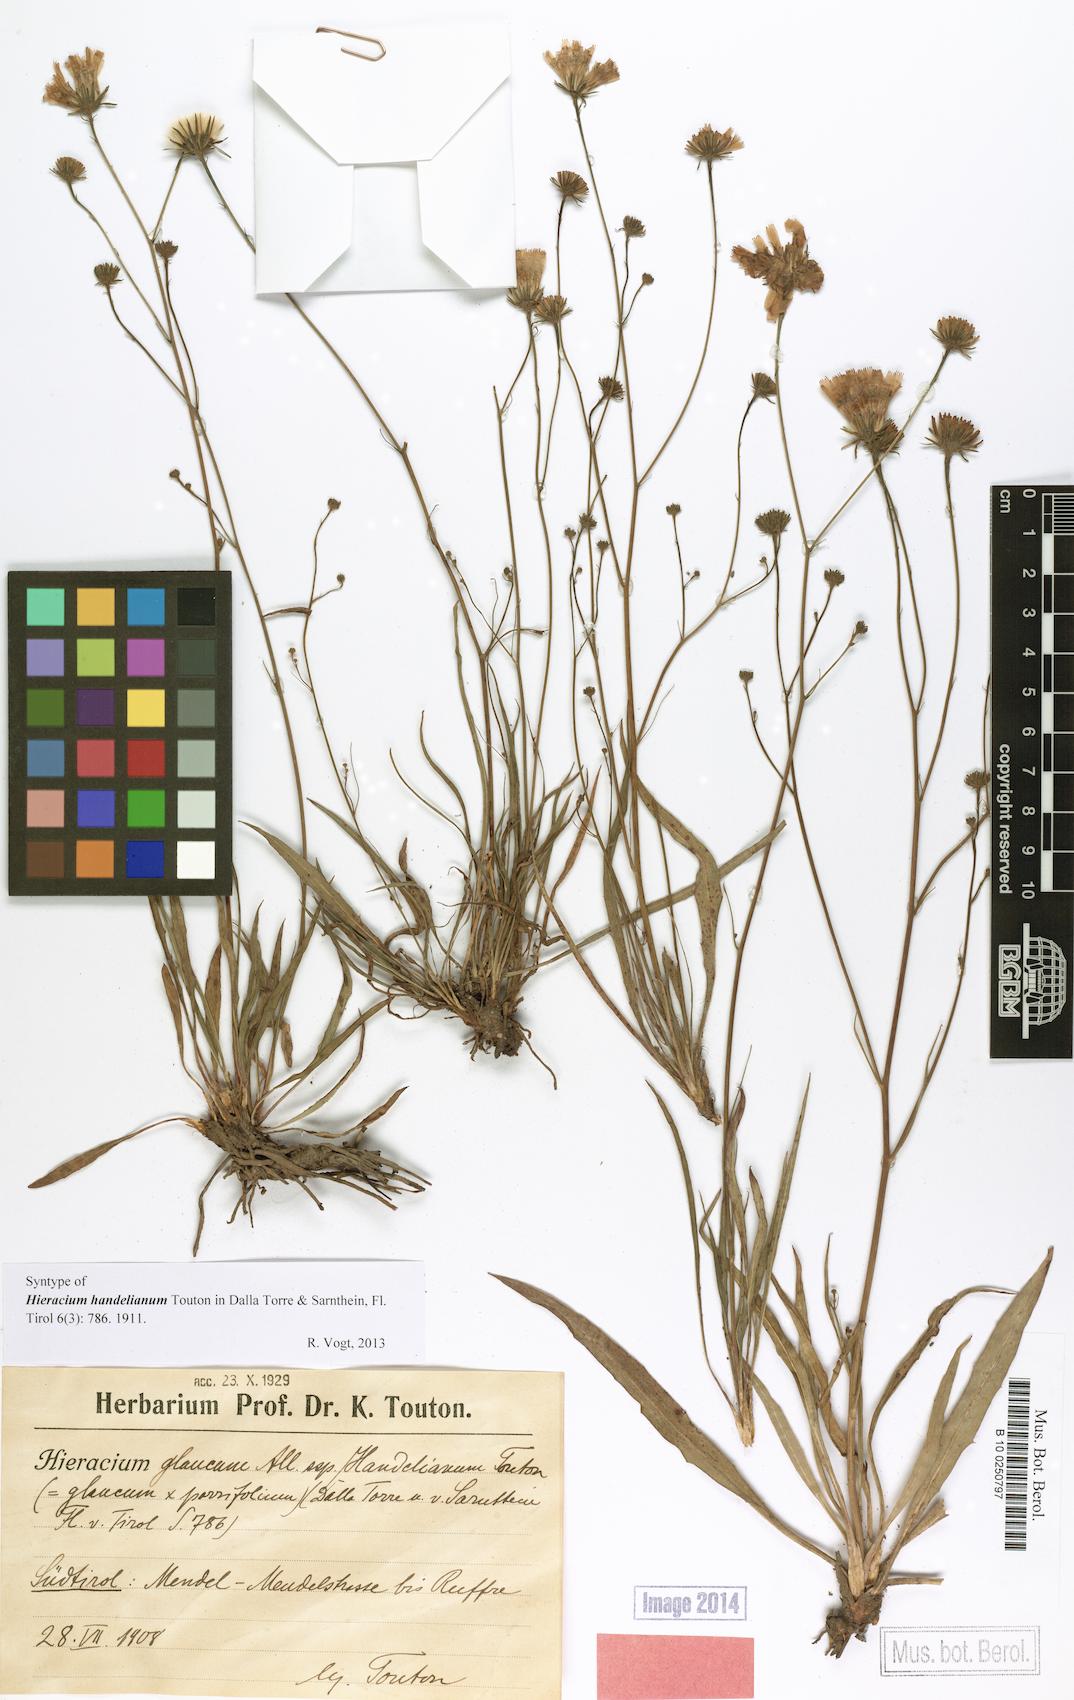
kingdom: Plantae
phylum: Tracheophyta
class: Magnoliopsida
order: Asterales
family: Asteraceae
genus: Hieracium
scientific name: Hieracium handelianum
